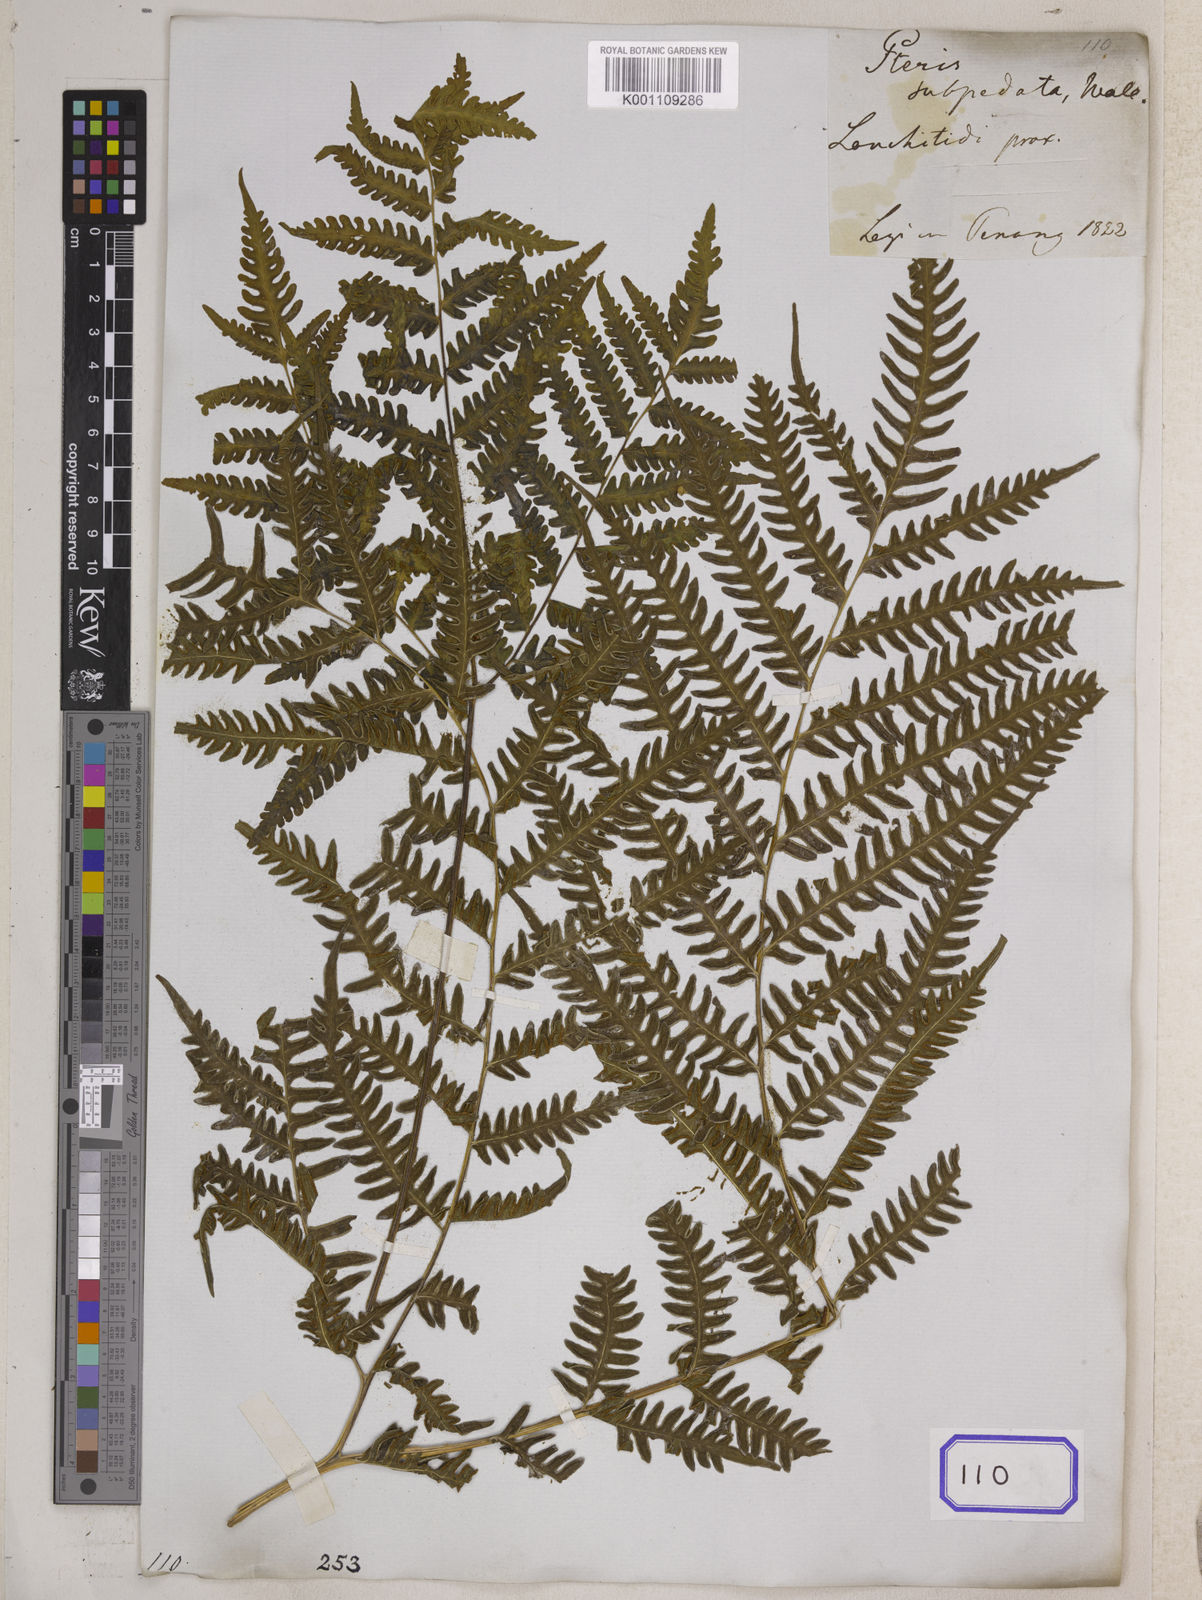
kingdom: Plantae
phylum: Tracheophyta
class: Polypodiopsida
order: Polypodiales
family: Pteridaceae
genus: Pteris
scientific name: Pteris tripartita
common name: Giant brake
